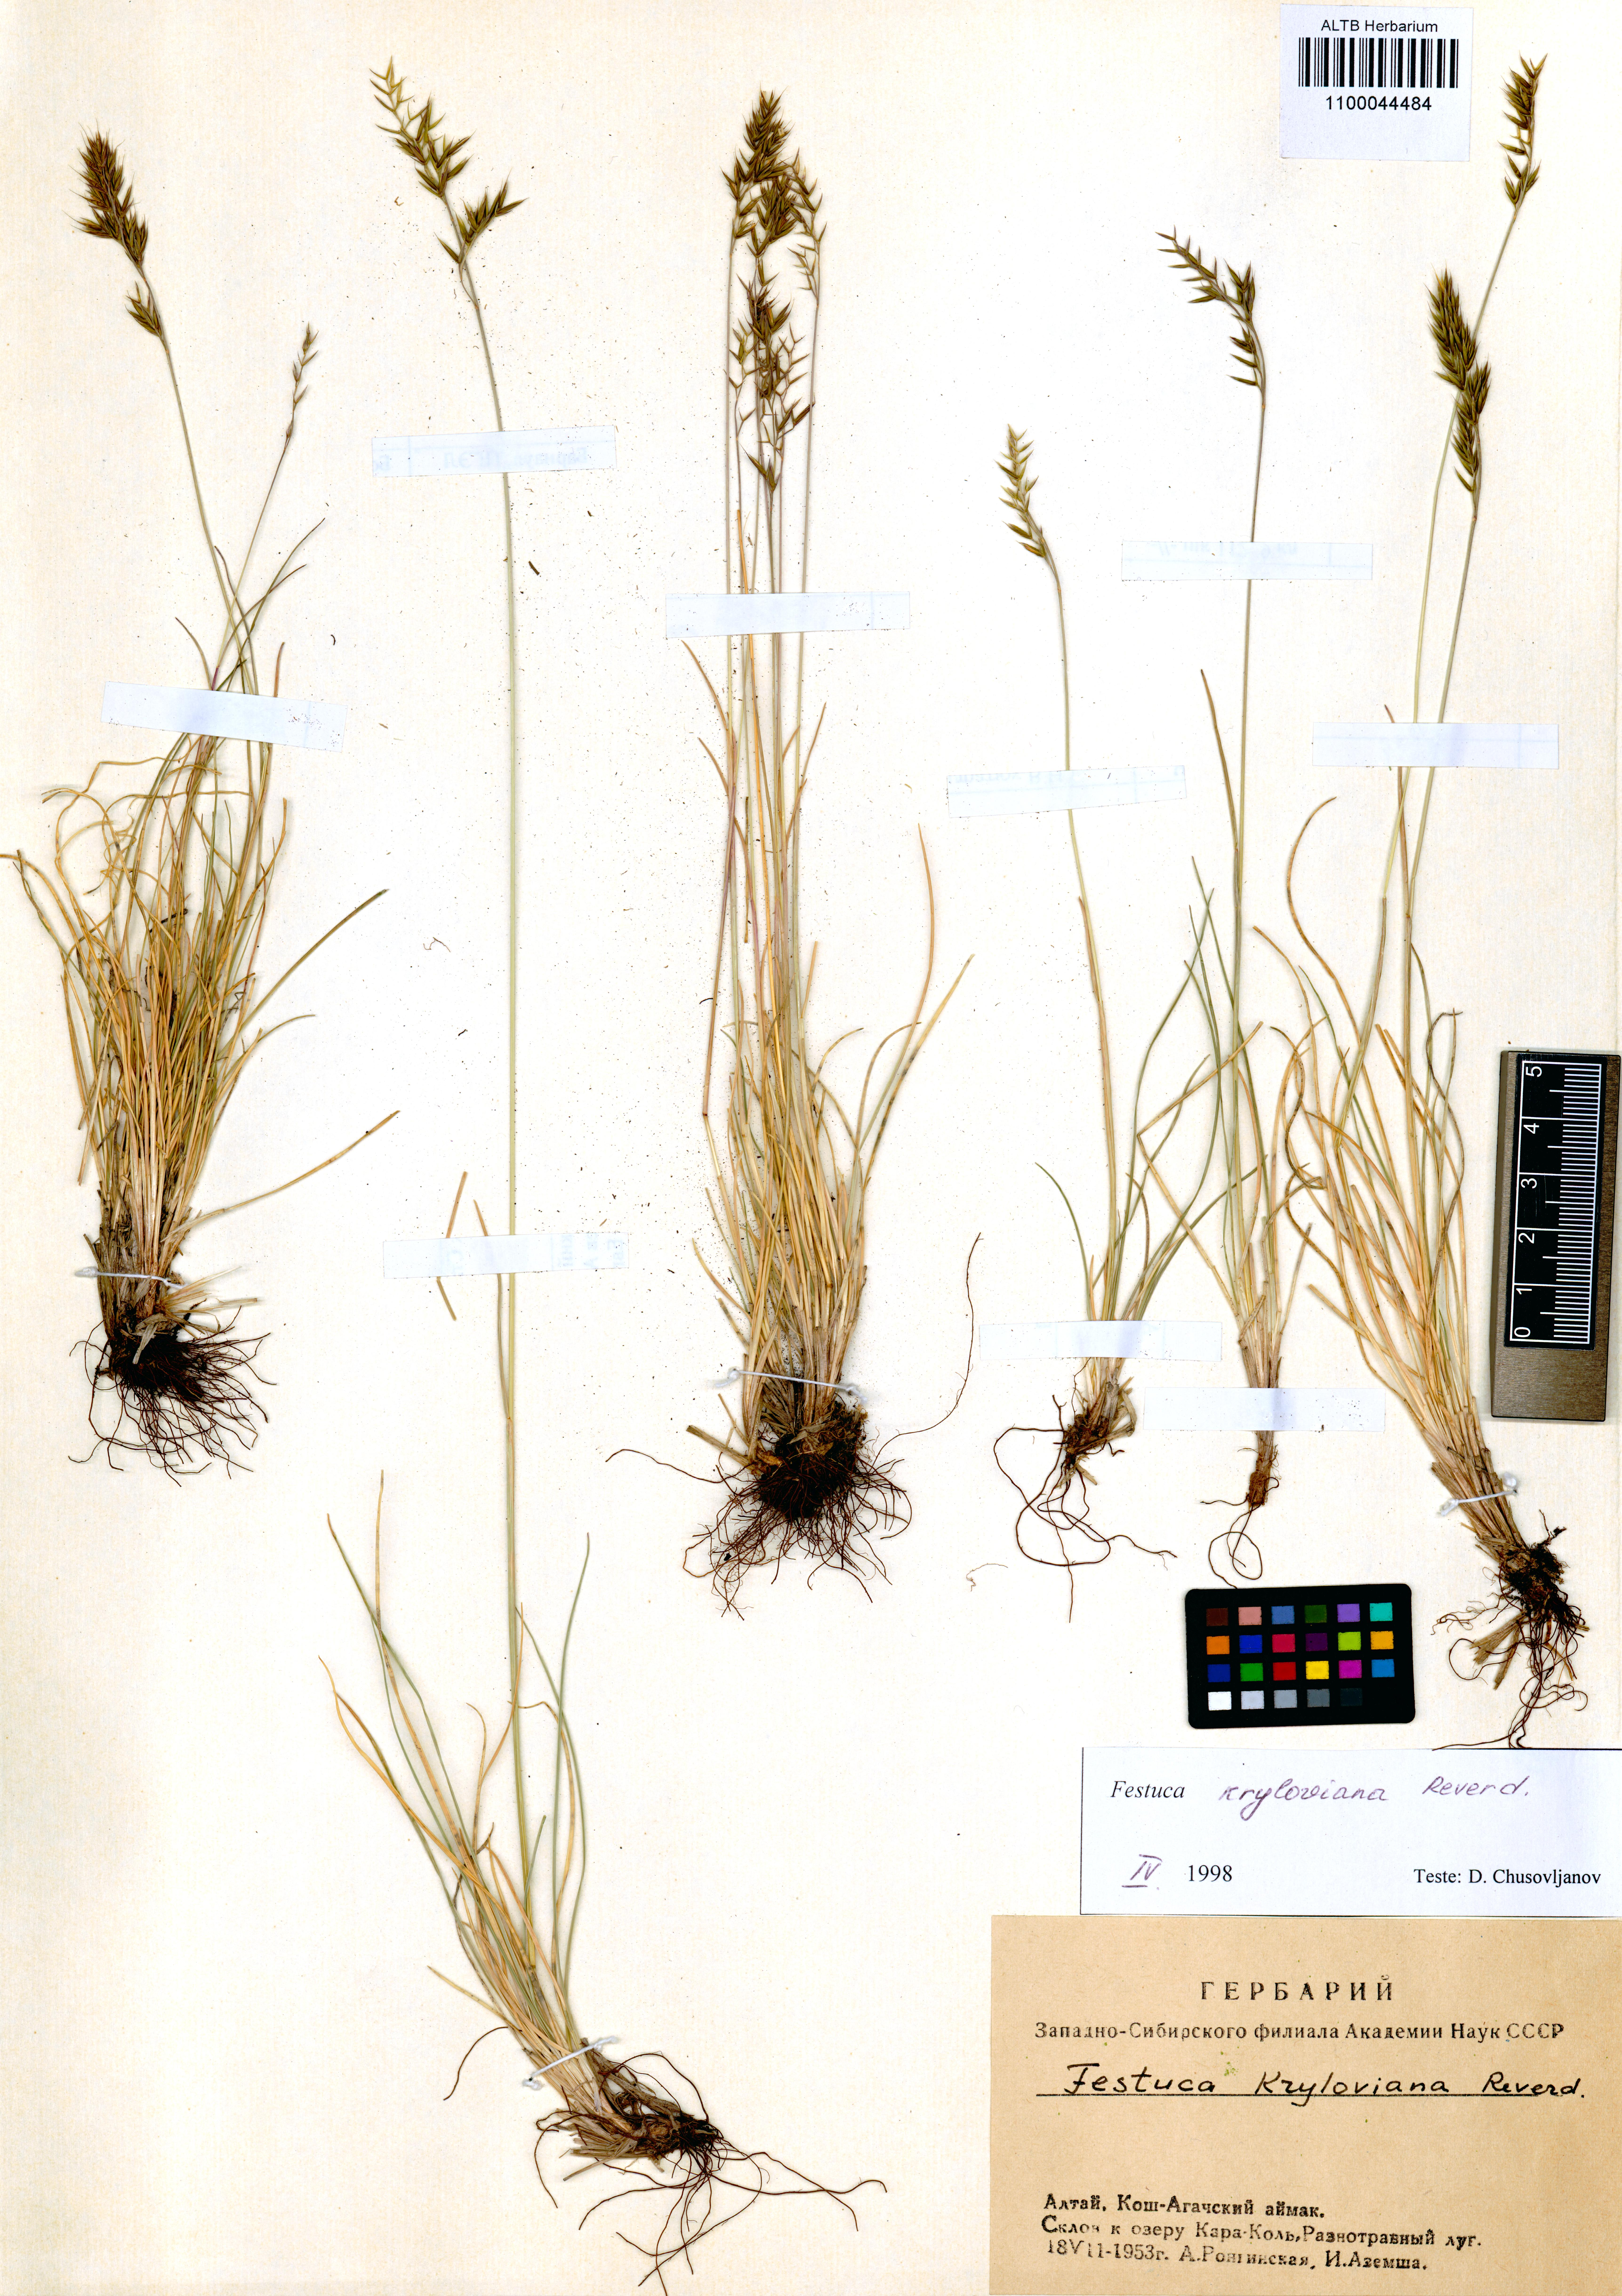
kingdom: Plantae
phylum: Tracheophyta
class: Liliopsida
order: Poales
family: Poaceae
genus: Festuca
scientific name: Festuca kryloviana
